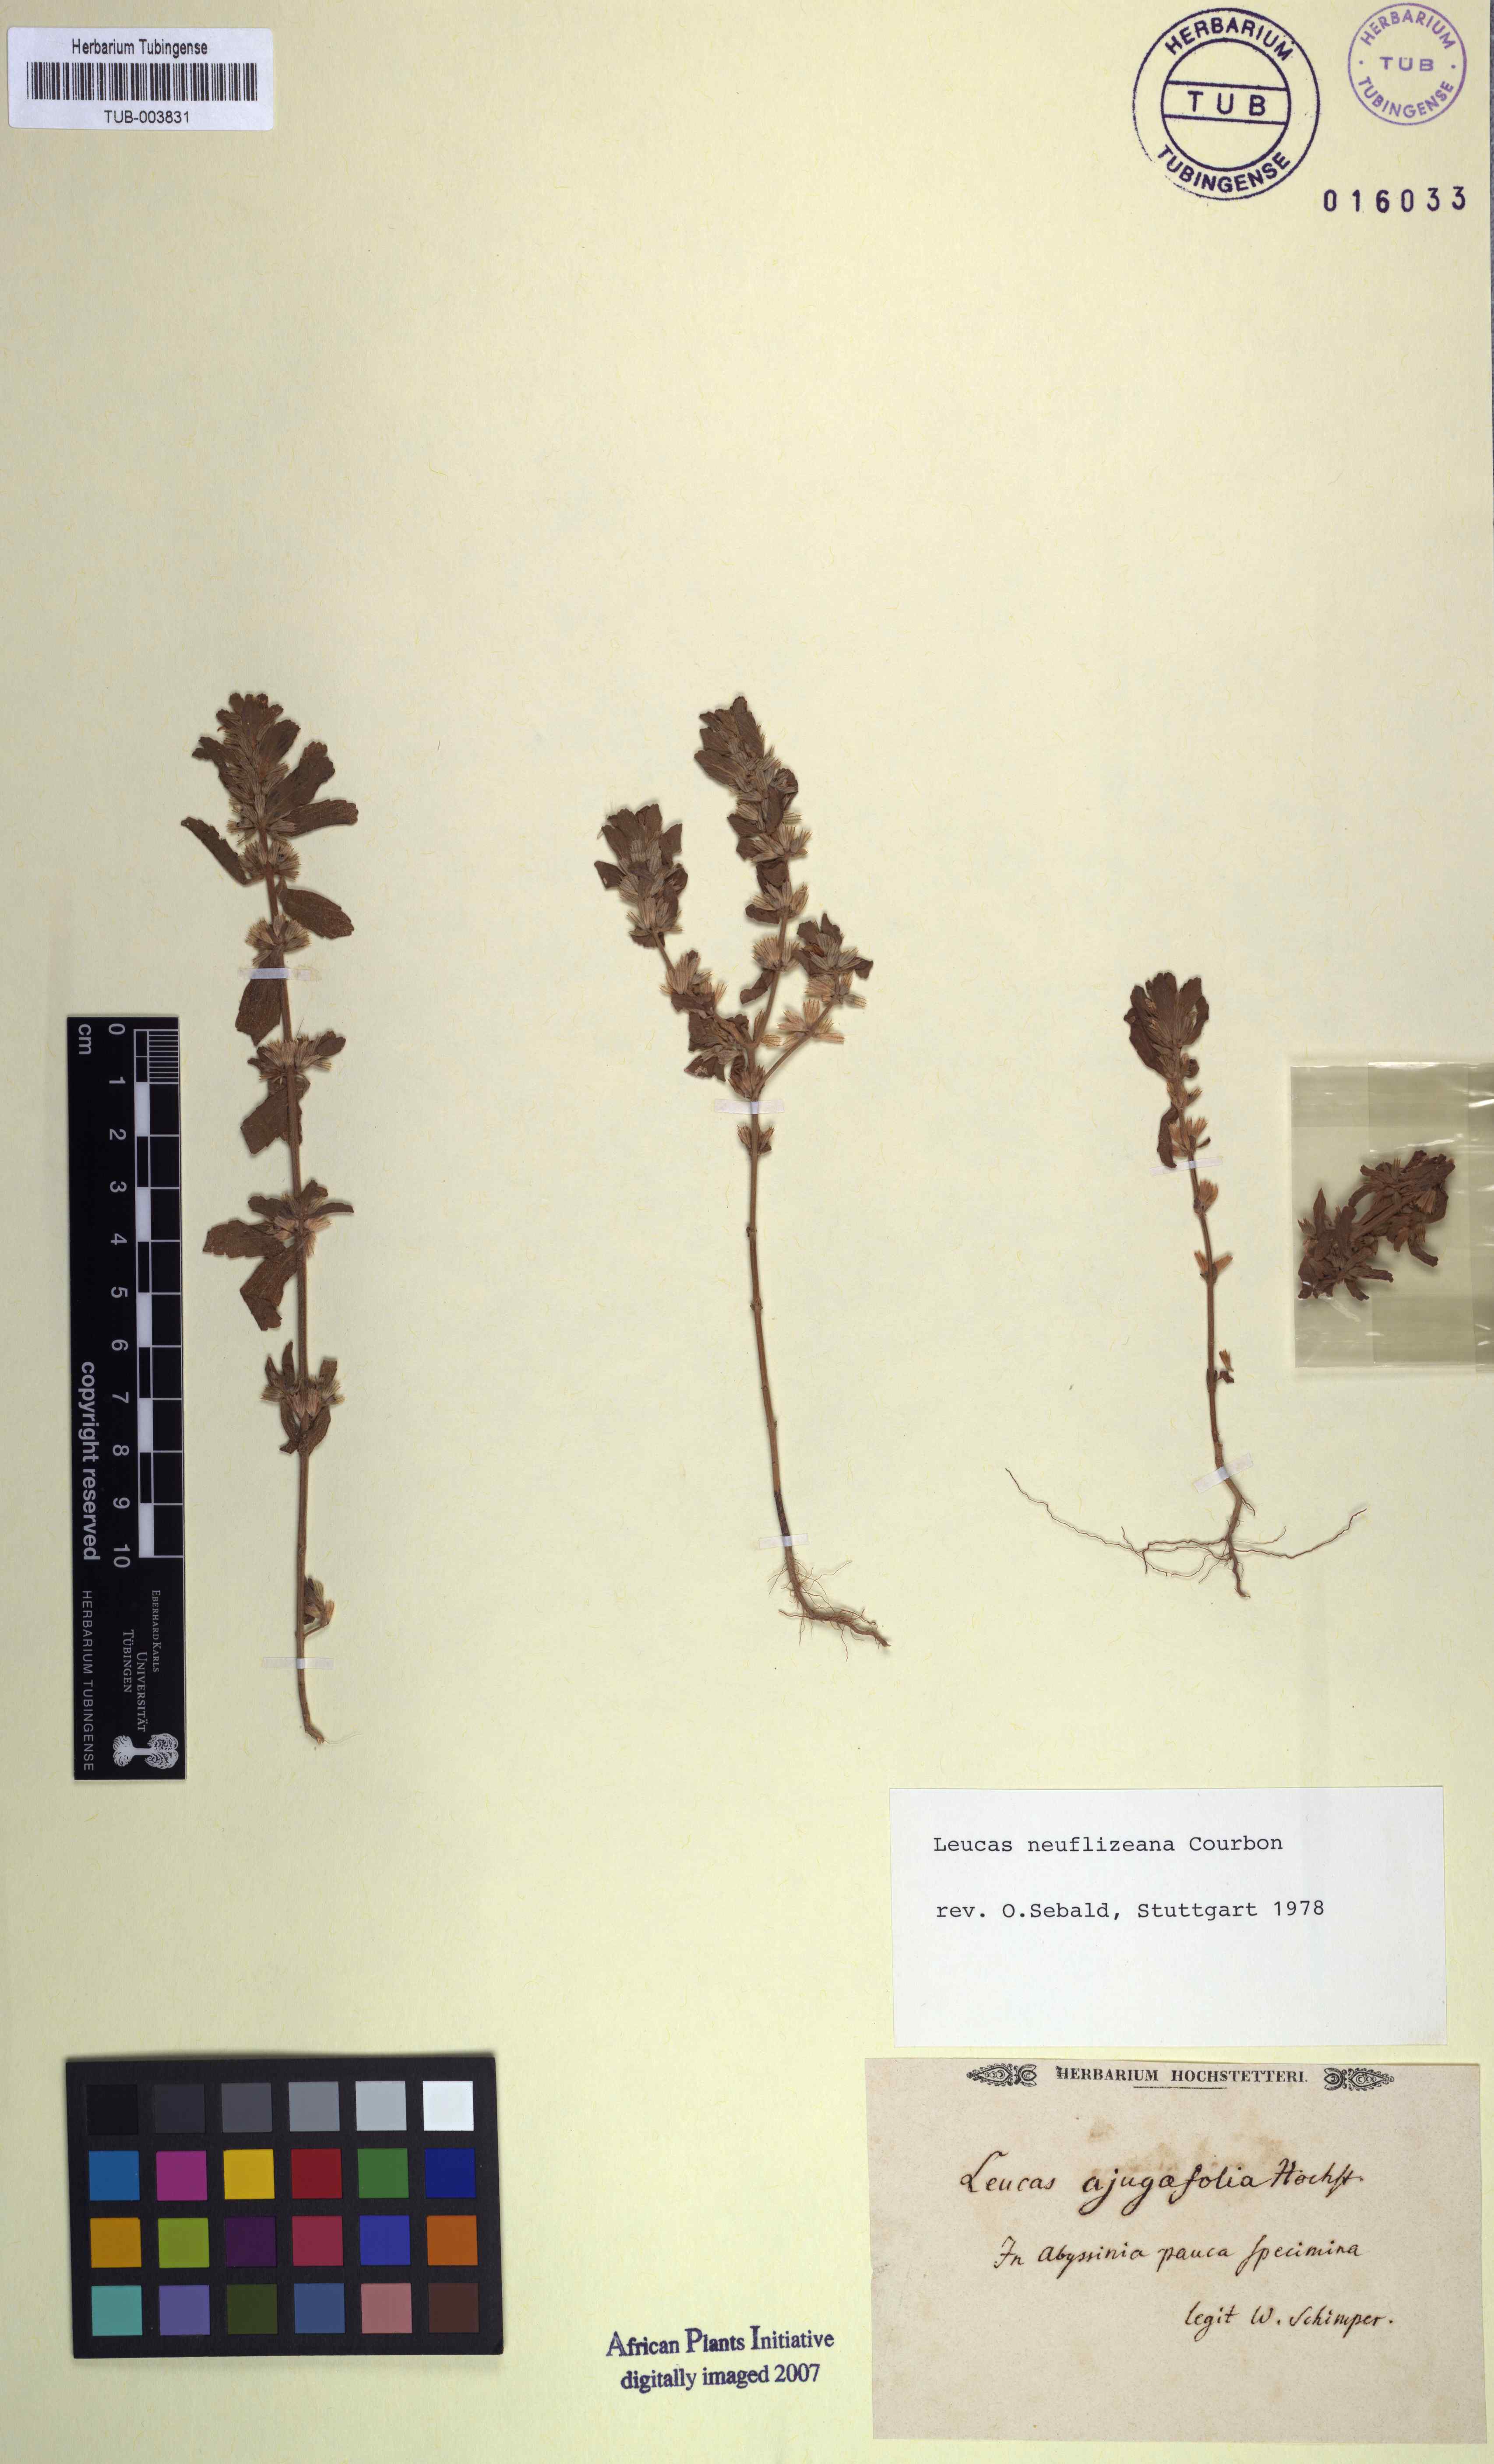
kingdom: Plantae
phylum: Tracheophyta
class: Magnoliopsida
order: Lamiales
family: Lamiaceae
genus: Leucas
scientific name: Leucas neuflizeana
